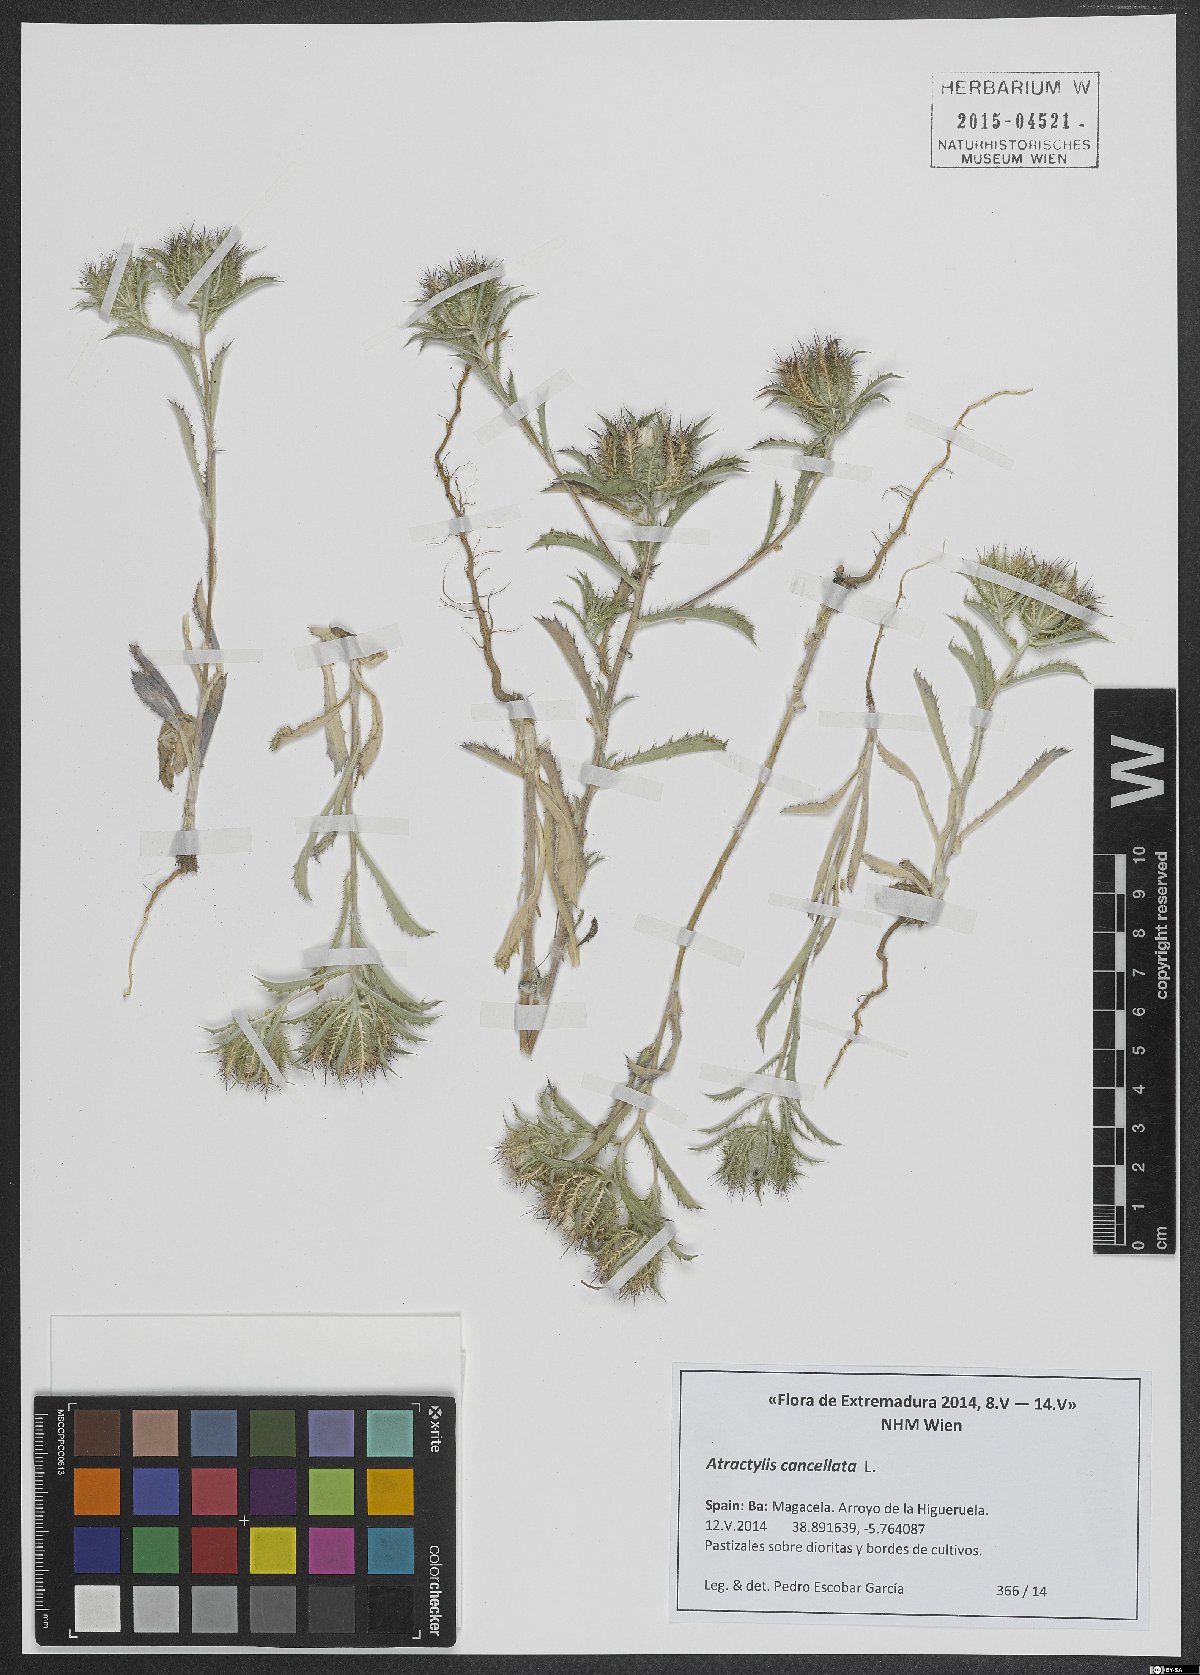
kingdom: Plantae
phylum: Tracheophyta
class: Magnoliopsida
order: Asterales
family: Asteraceae
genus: Atractylis
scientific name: Atractylis cancellata
